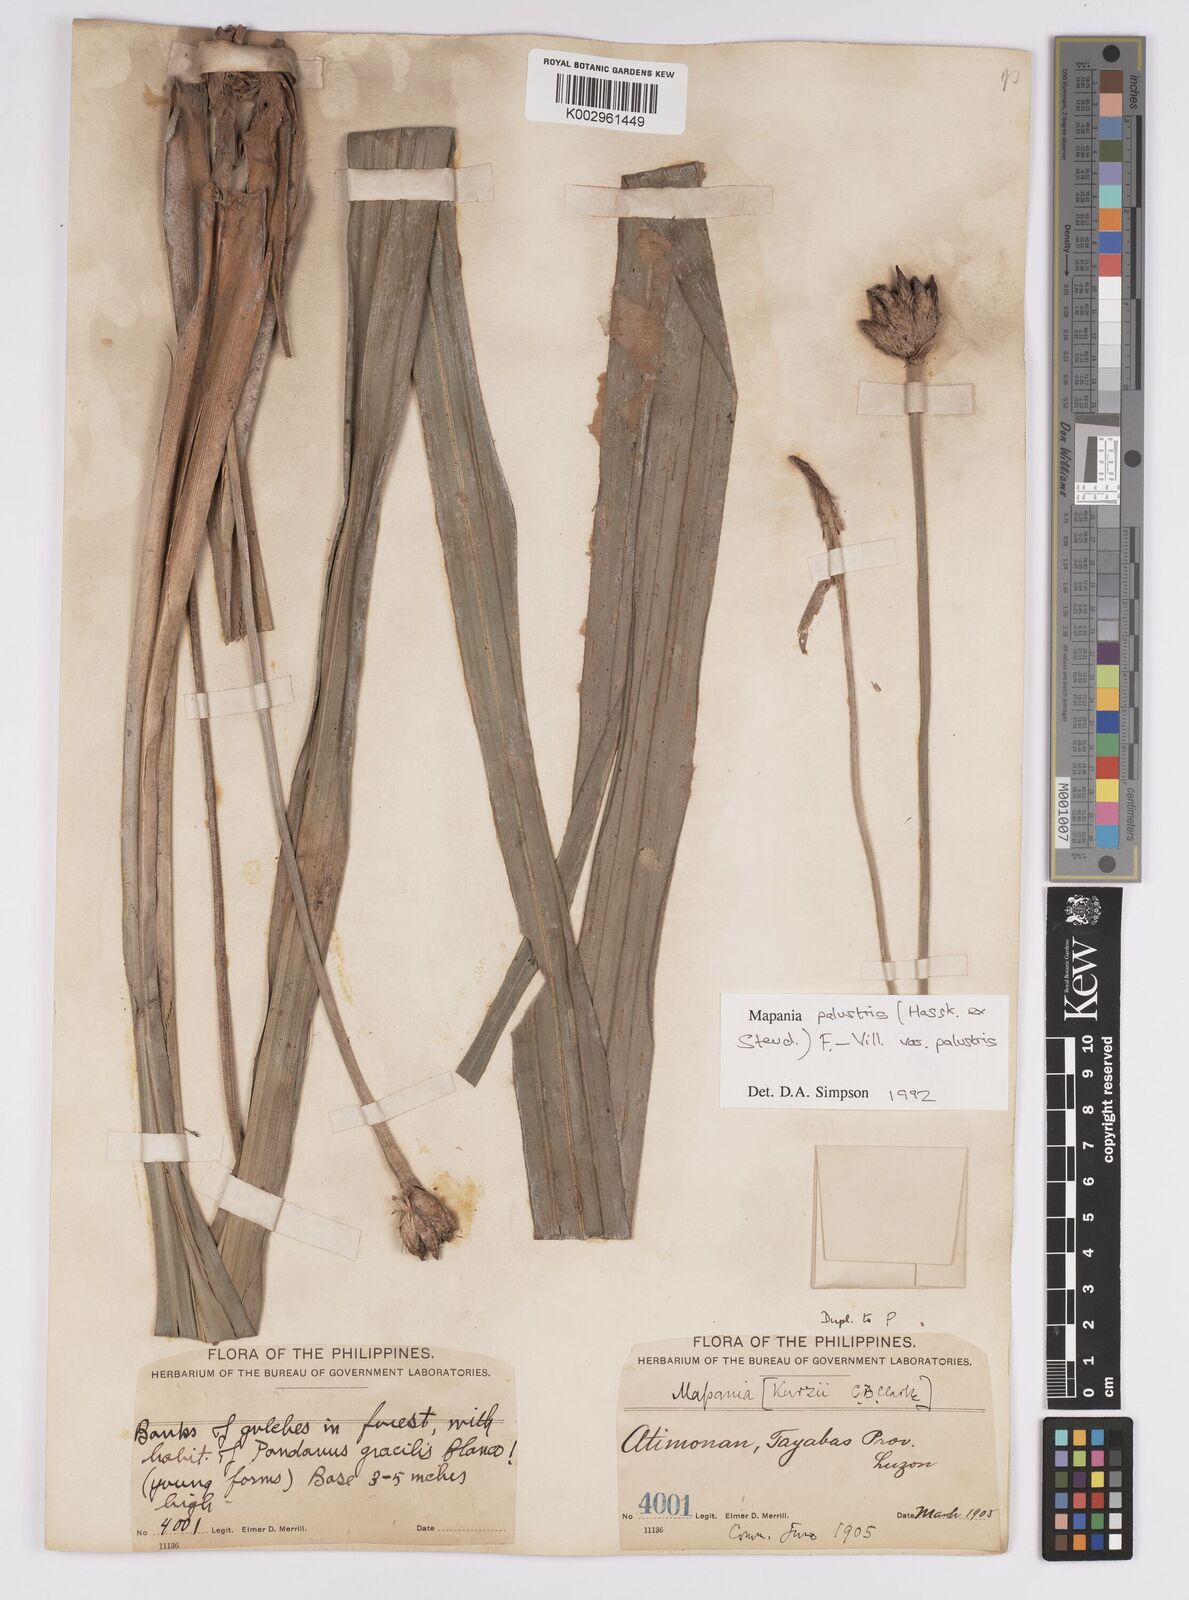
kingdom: Plantae
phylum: Tracheophyta
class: Liliopsida
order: Poales
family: Cyperaceae
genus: Mapania
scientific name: Mapania palustris
